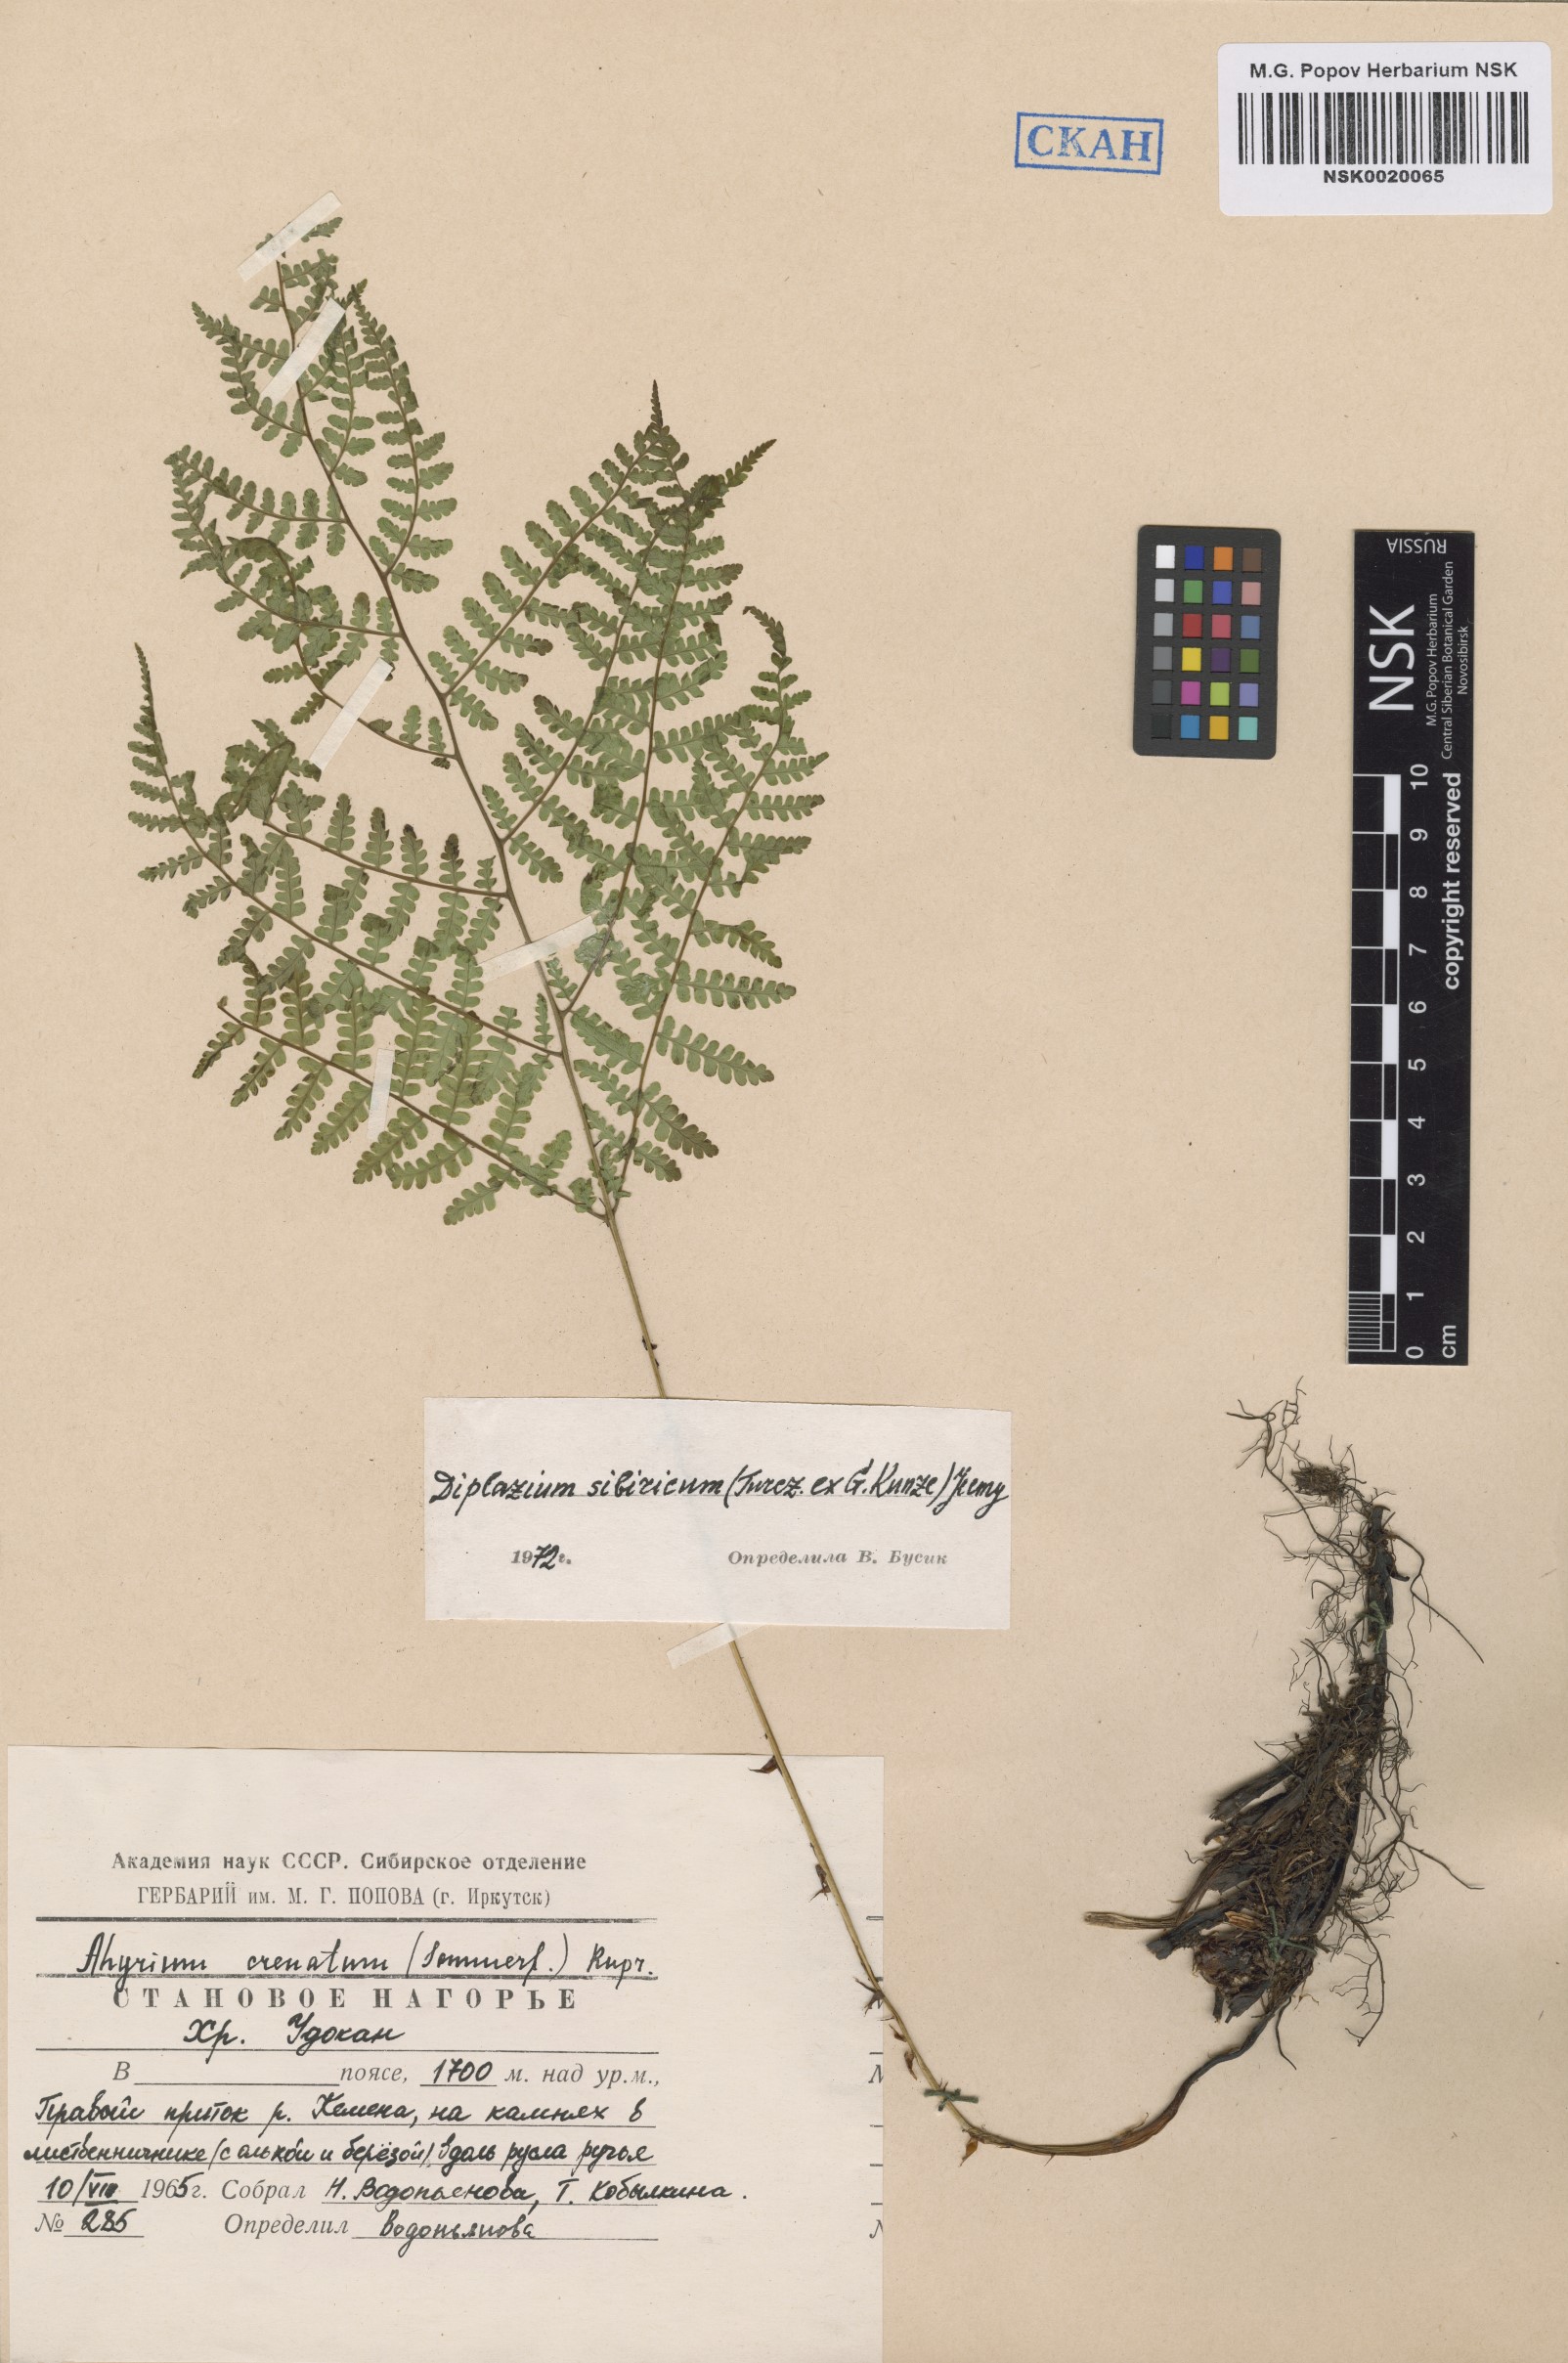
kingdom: Plantae
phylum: Tracheophyta
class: Polypodiopsida
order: Polypodiales
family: Athyriaceae
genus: Diplazium
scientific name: Diplazium sibiricum
